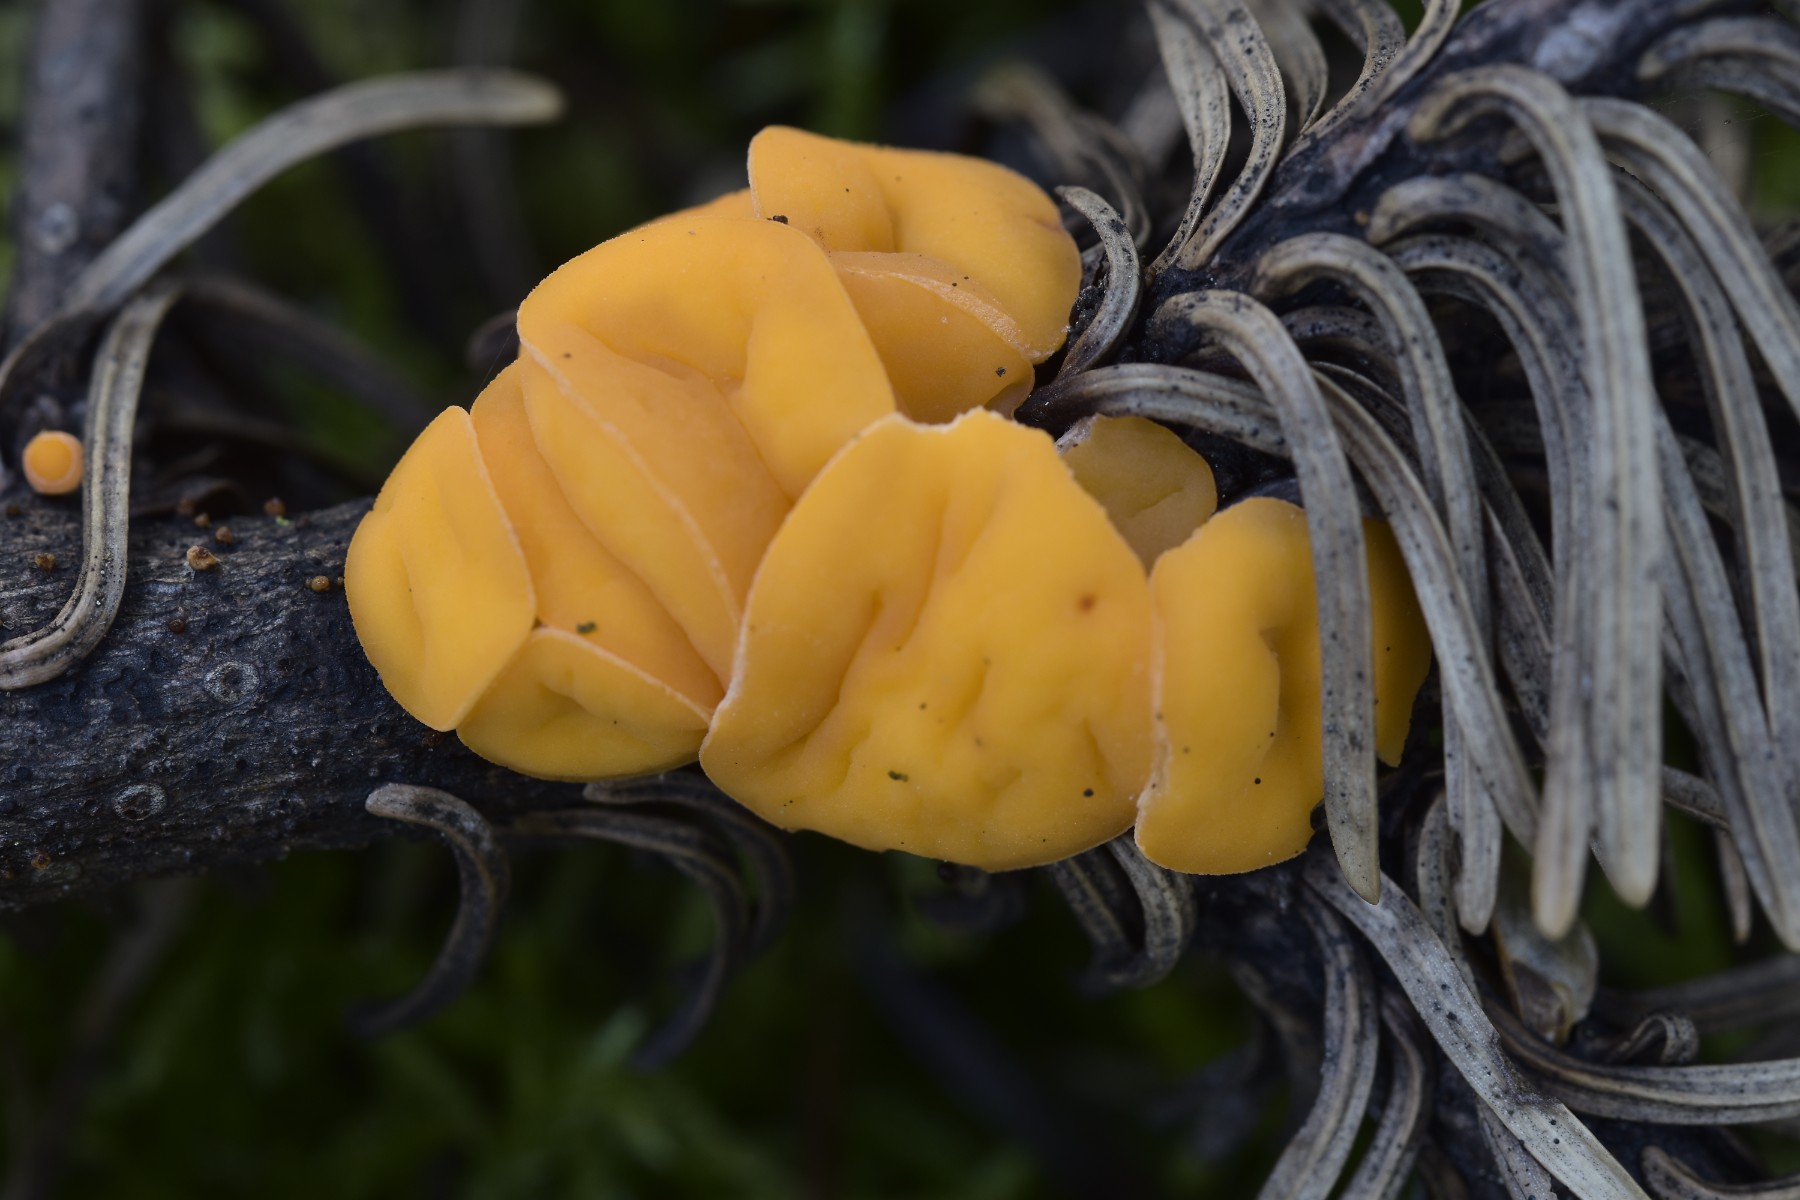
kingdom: Fungi
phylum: Ascomycota
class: Pezizomycetes
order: Pezizales
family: Sarcoscyphaceae
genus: Pithya
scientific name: Pithya vulgaris
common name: stor dukatbæger
